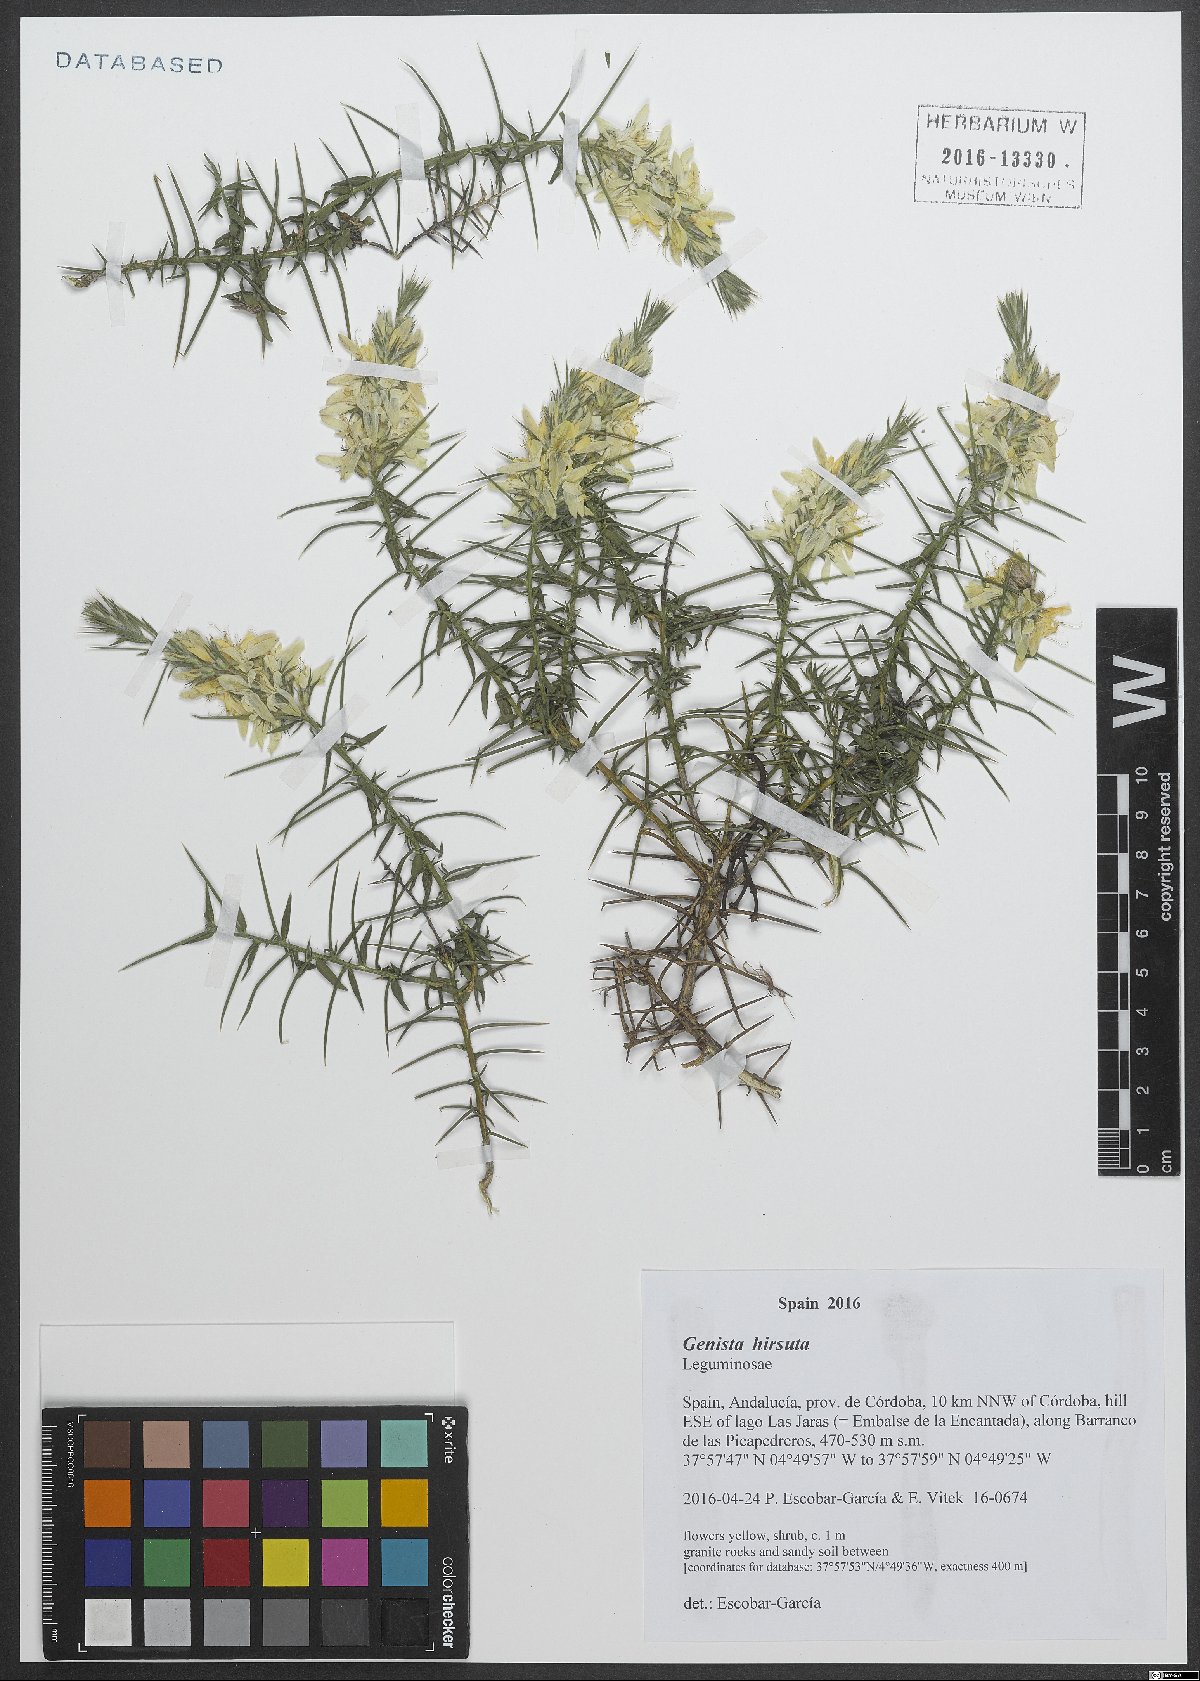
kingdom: Plantae
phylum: Tracheophyta
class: Magnoliopsida
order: Fabales
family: Fabaceae
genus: Genista
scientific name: Genista hirsuta
